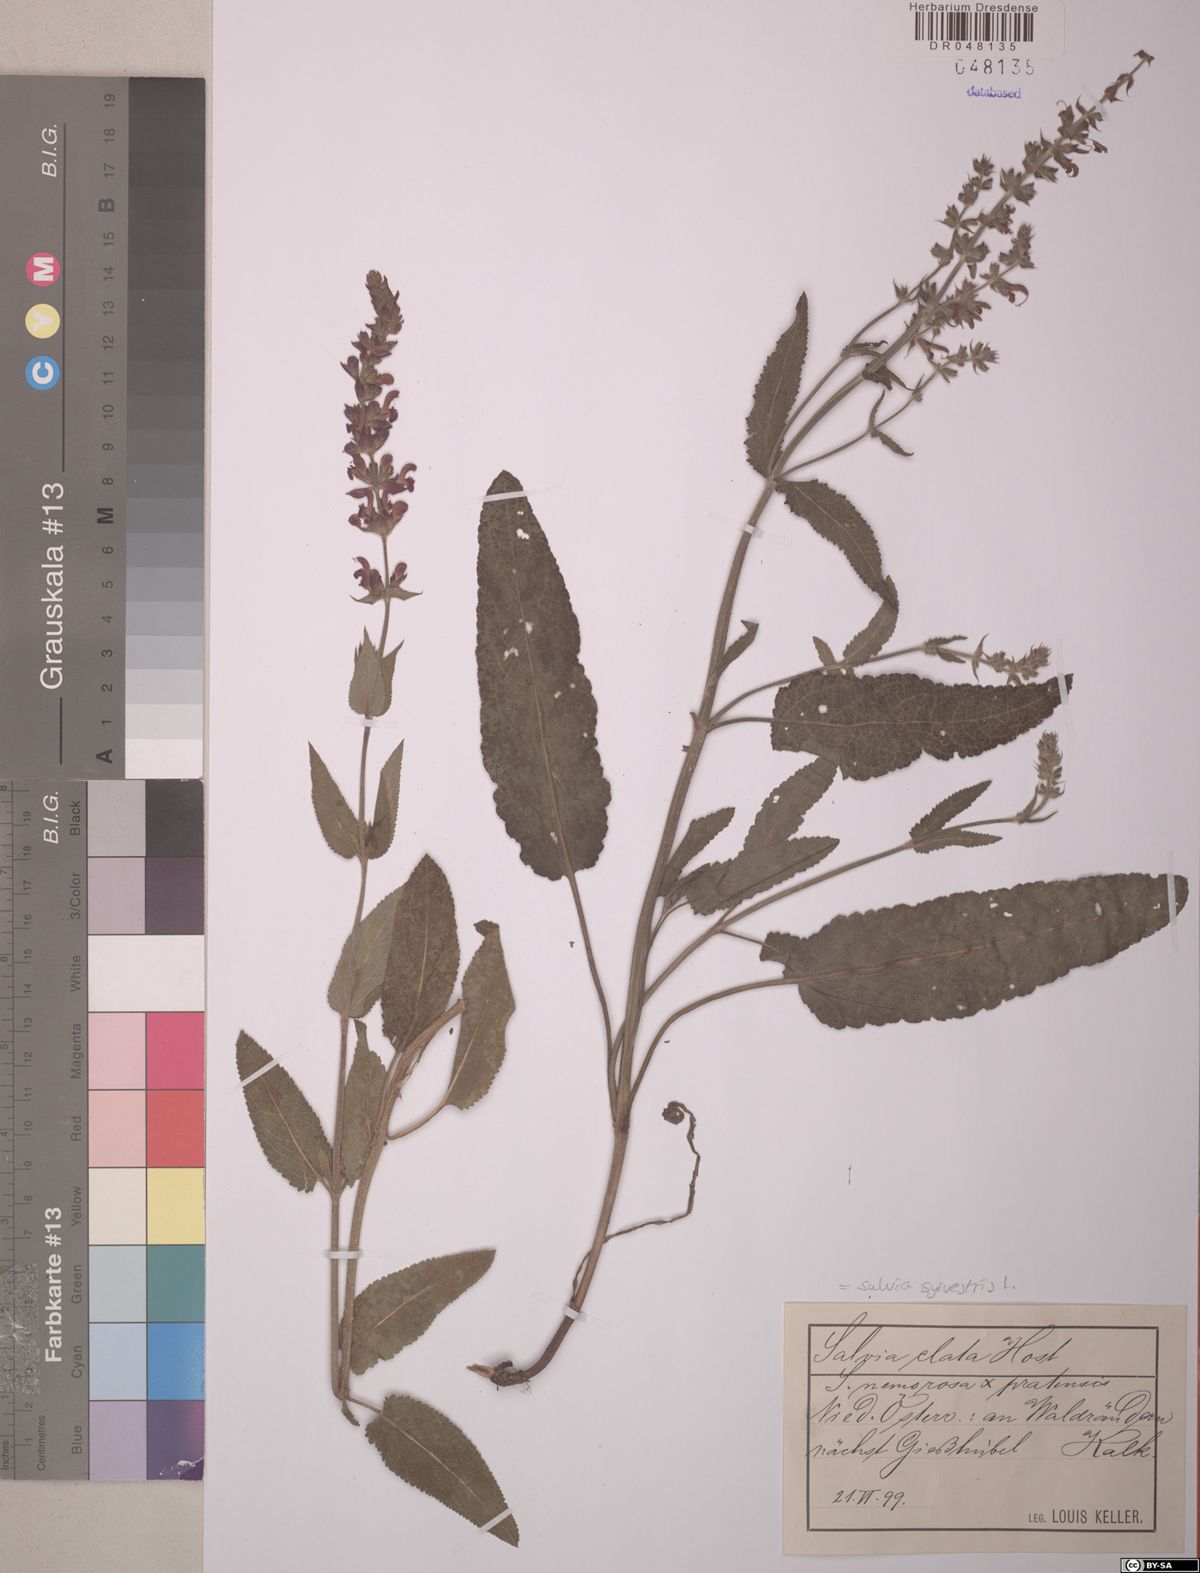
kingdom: Plantae
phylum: Tracheophyta
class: Magnoliopsida
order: Lamiales
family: Lamiaceae
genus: Salvia
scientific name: Salvia sylvestris
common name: Woodland sage
